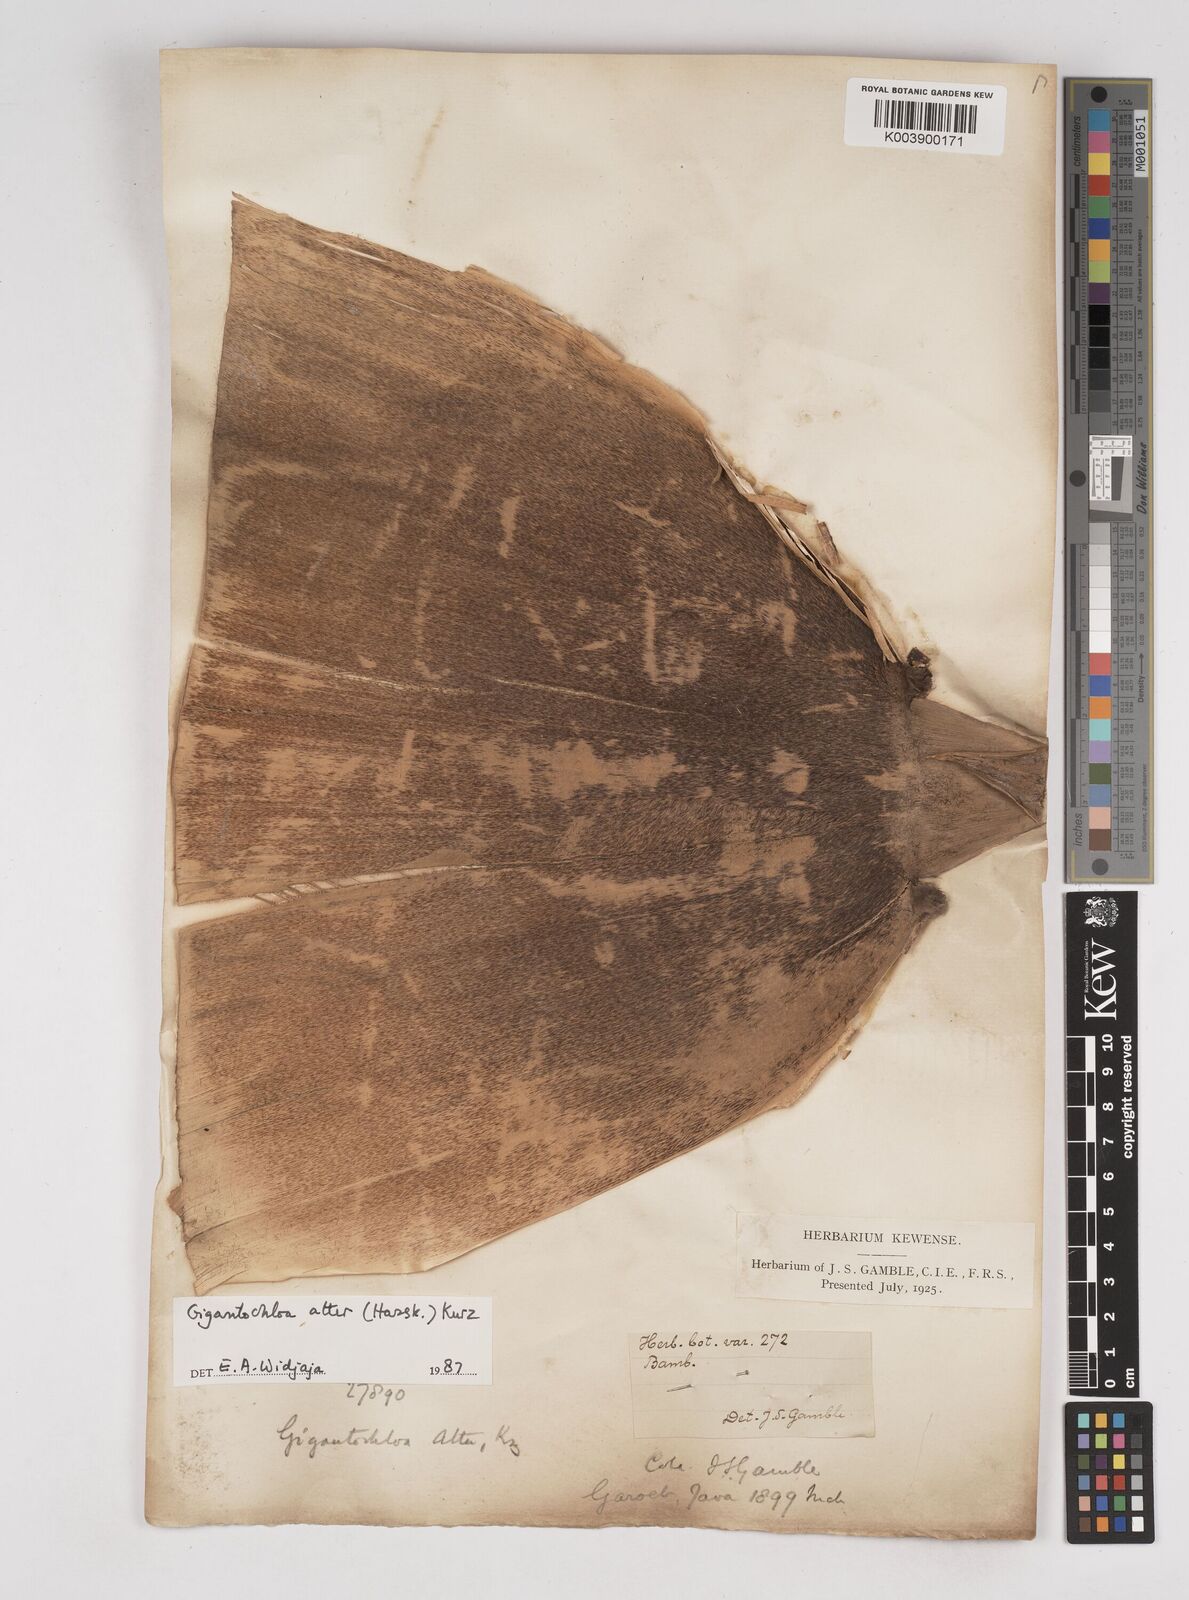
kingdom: Plantae
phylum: Tracheophyta
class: Liliopsida
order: Poales
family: Poaceae
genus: Gigantochloa
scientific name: Gigantochloa atter
